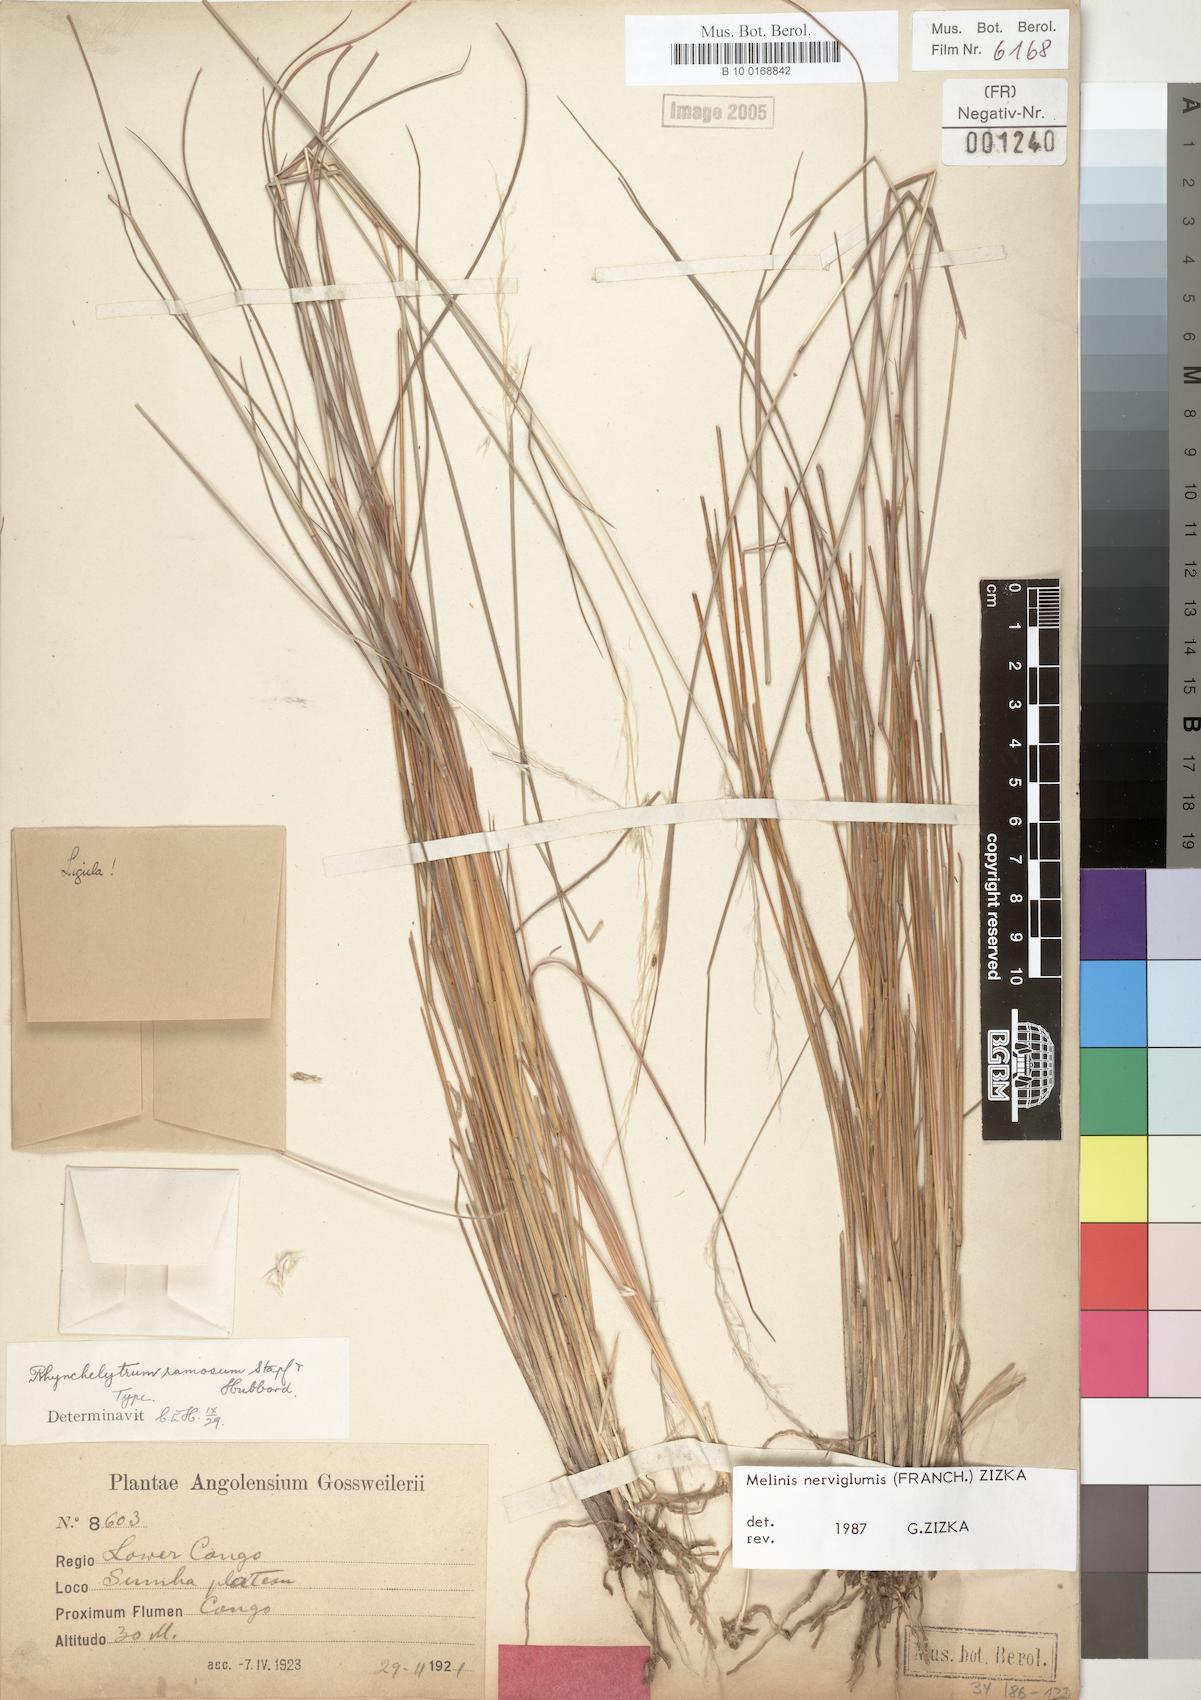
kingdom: Plantae
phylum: Tracheophyta
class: Liliopsida
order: Poales
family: Poaceae
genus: Melinis
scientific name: Melinis nerviglumis
